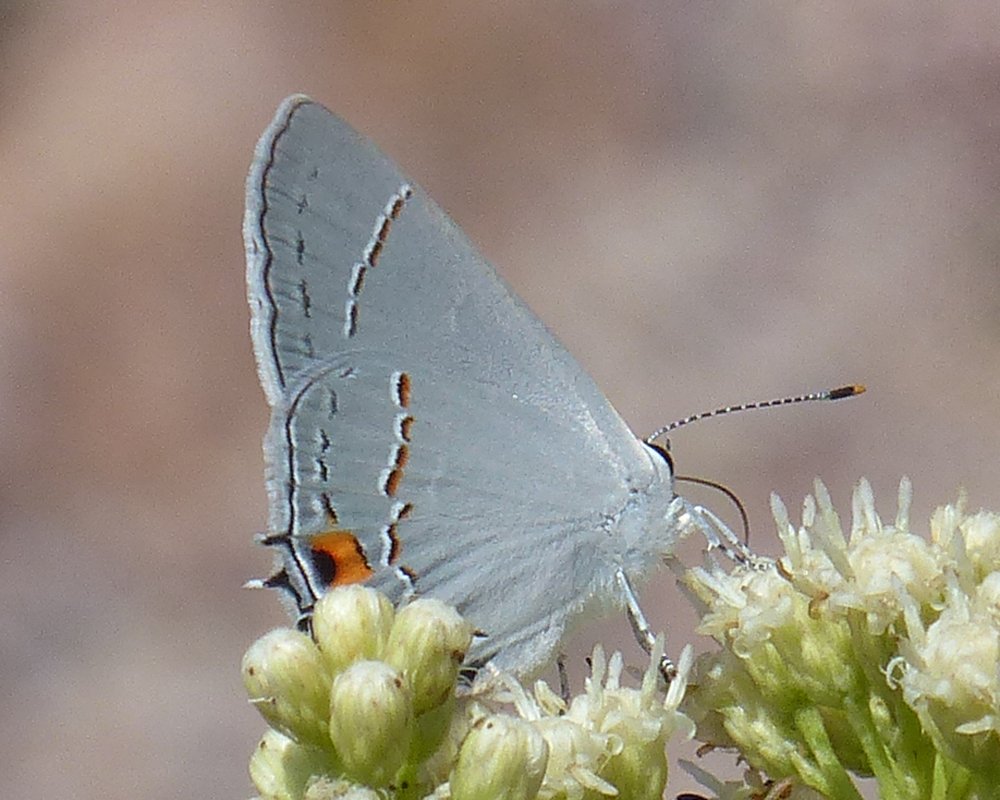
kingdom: Animalia
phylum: Arthropoda
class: Insecta
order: Lepidoptera
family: Lycaenidae
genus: Strymon
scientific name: Strymon melinus
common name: Gray Hairstreak
